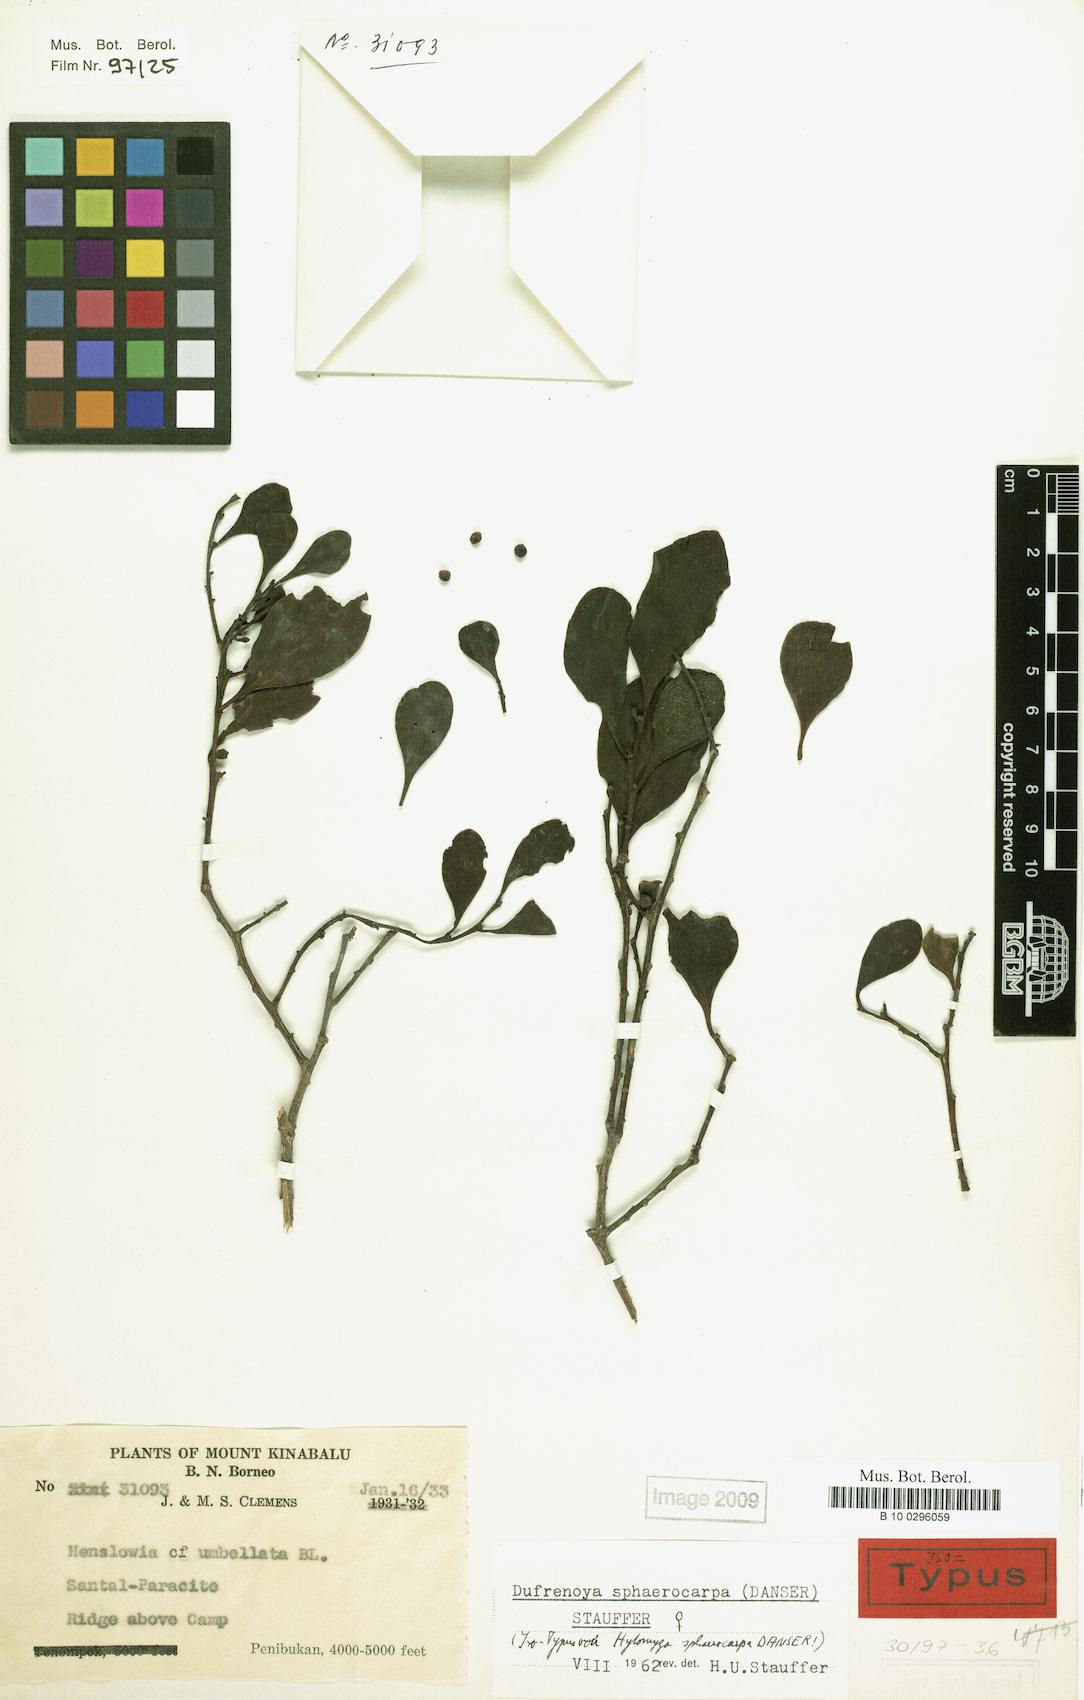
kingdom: Plantae
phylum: Tracheophyta
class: Magnoliopsida
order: Santalales
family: Amphorogynaceae
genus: Dufrenoya
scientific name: Dufrenoya sphaerocarpa
